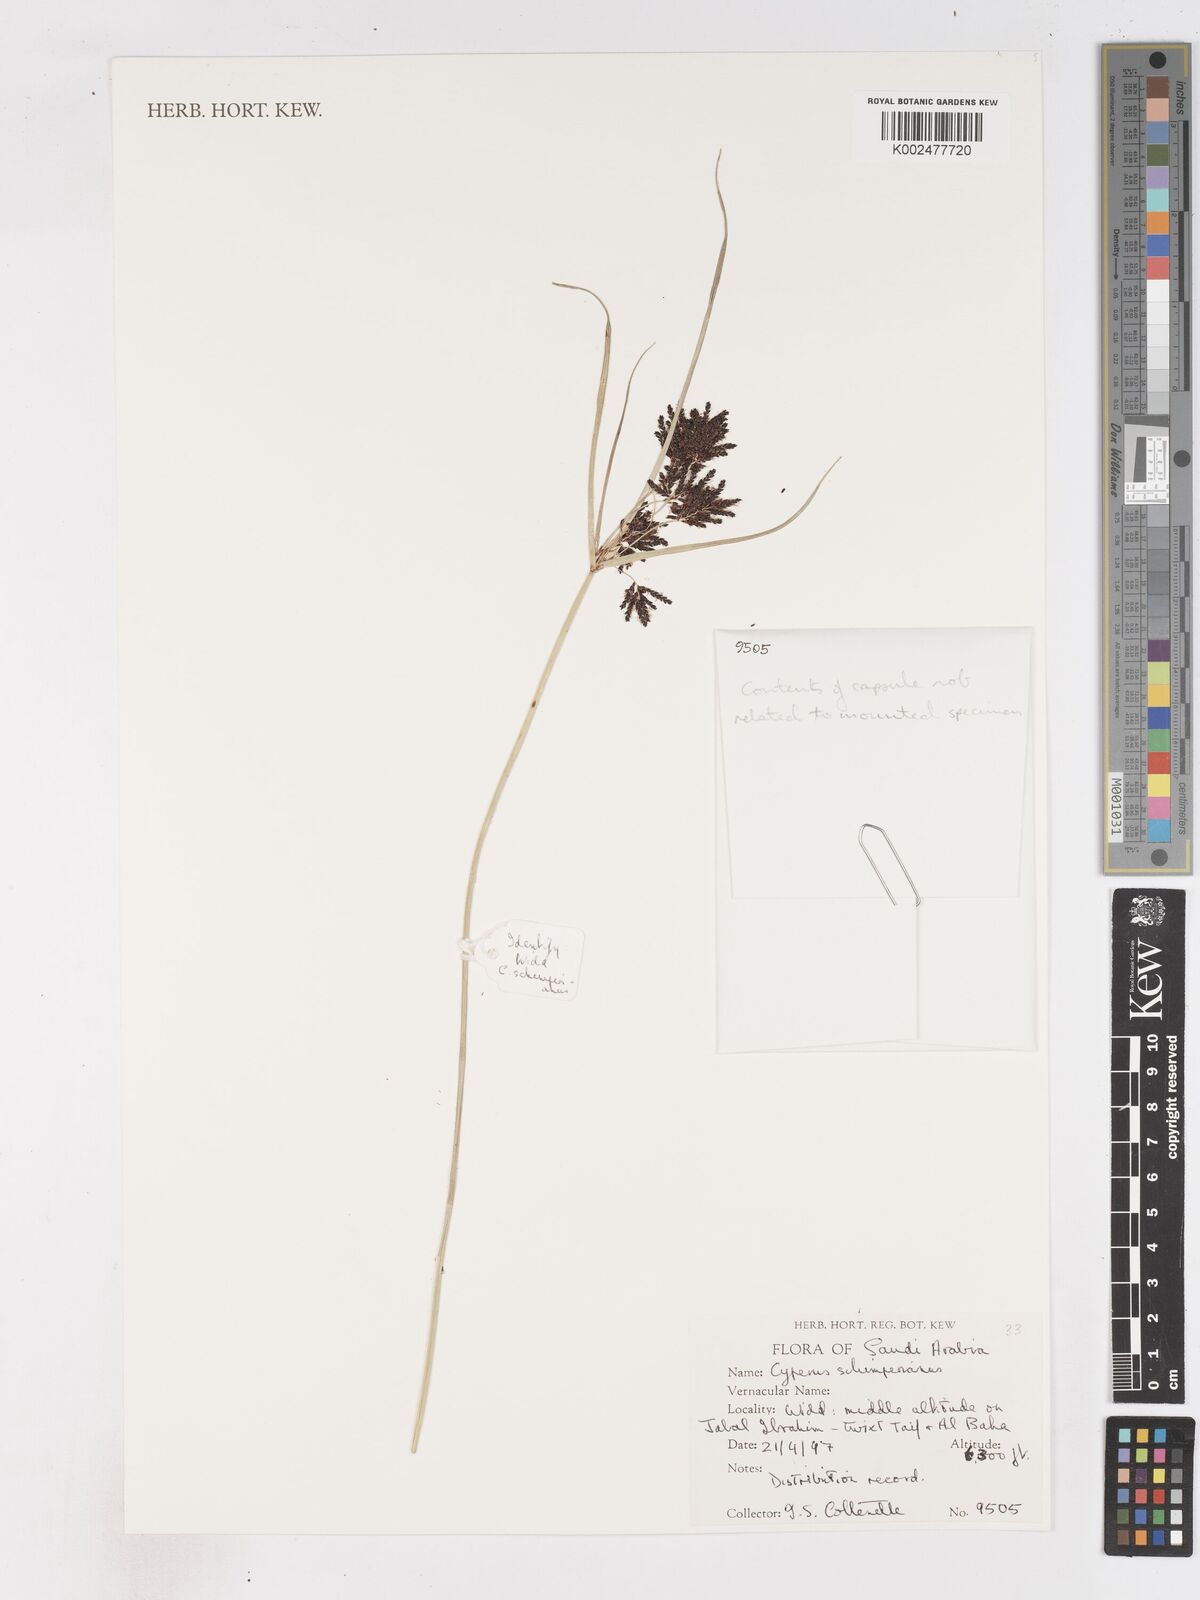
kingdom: Plantae
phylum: Tracheophyta
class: Liliopsida
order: Poales
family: Cyperaceae
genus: Cyperus
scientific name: Cyperus schimperianus
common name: Schimper flatsedge
